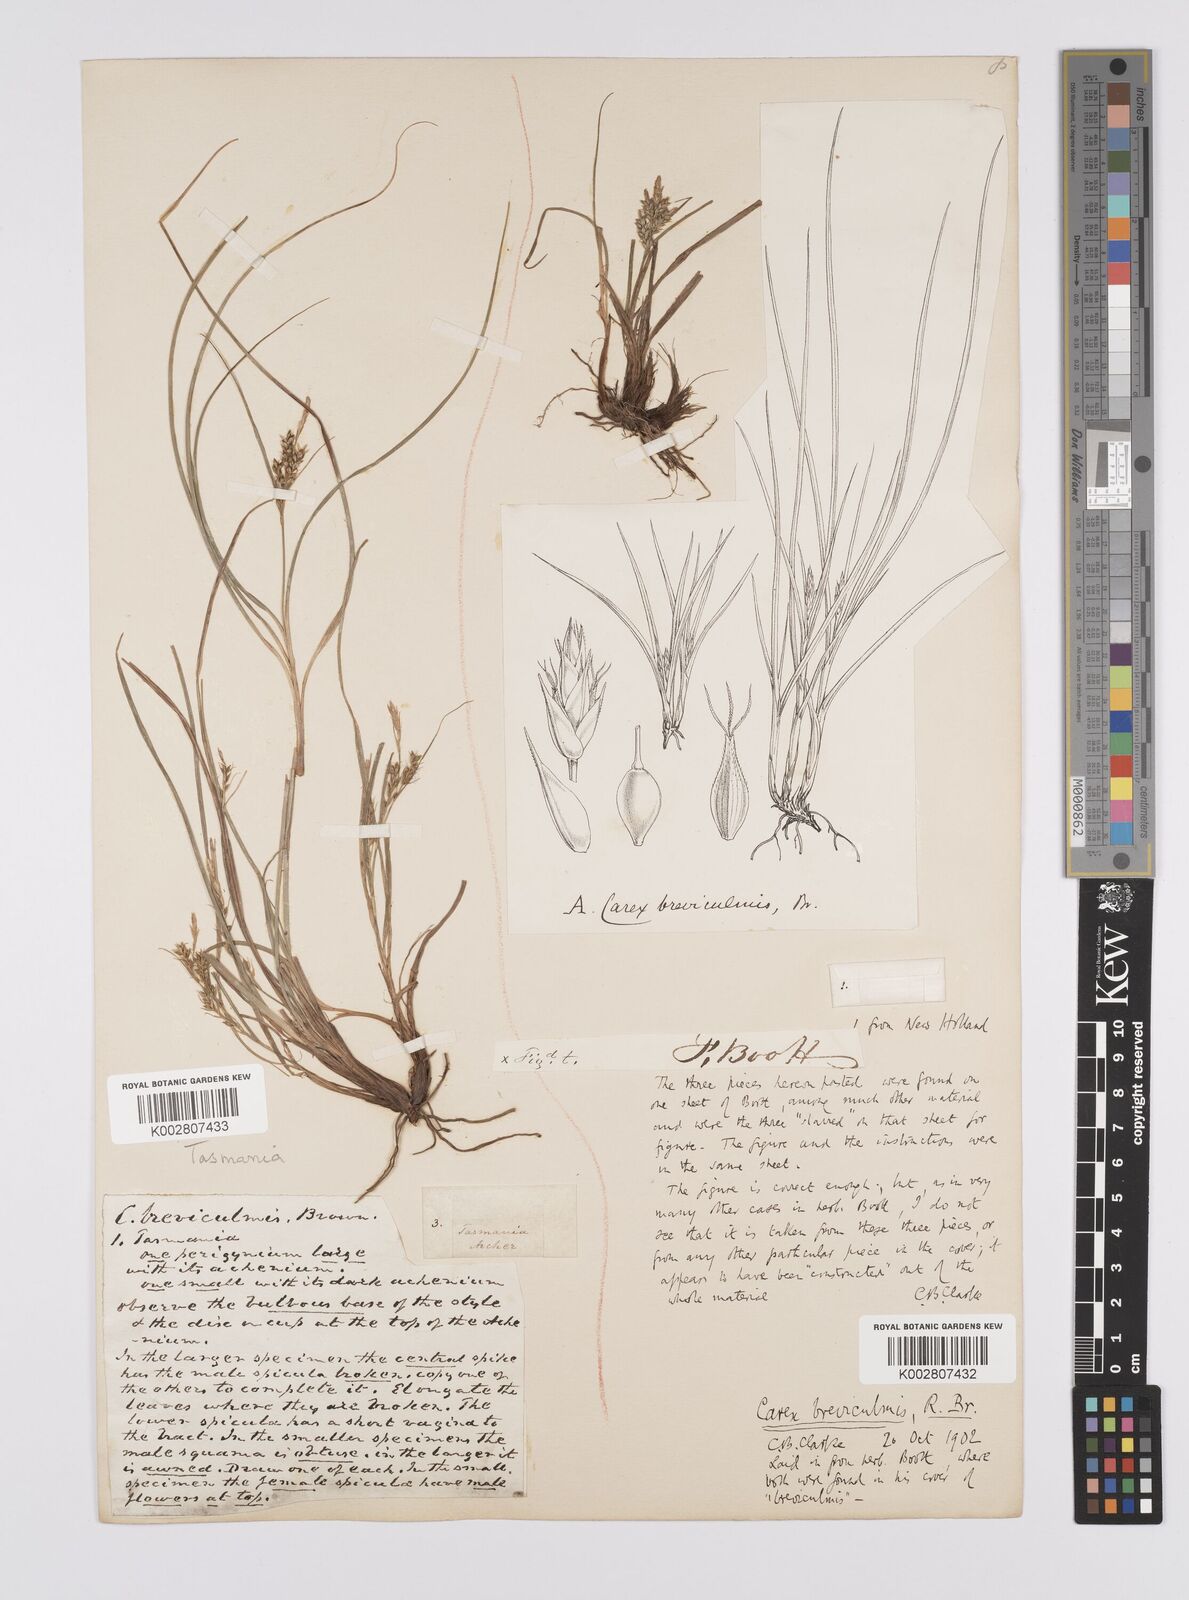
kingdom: Plantae
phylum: Tracheophyta
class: Liliopsida
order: Poales
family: Cyperaceae
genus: Carex
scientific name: Carex breviculmis
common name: Asian shortstem sedge
